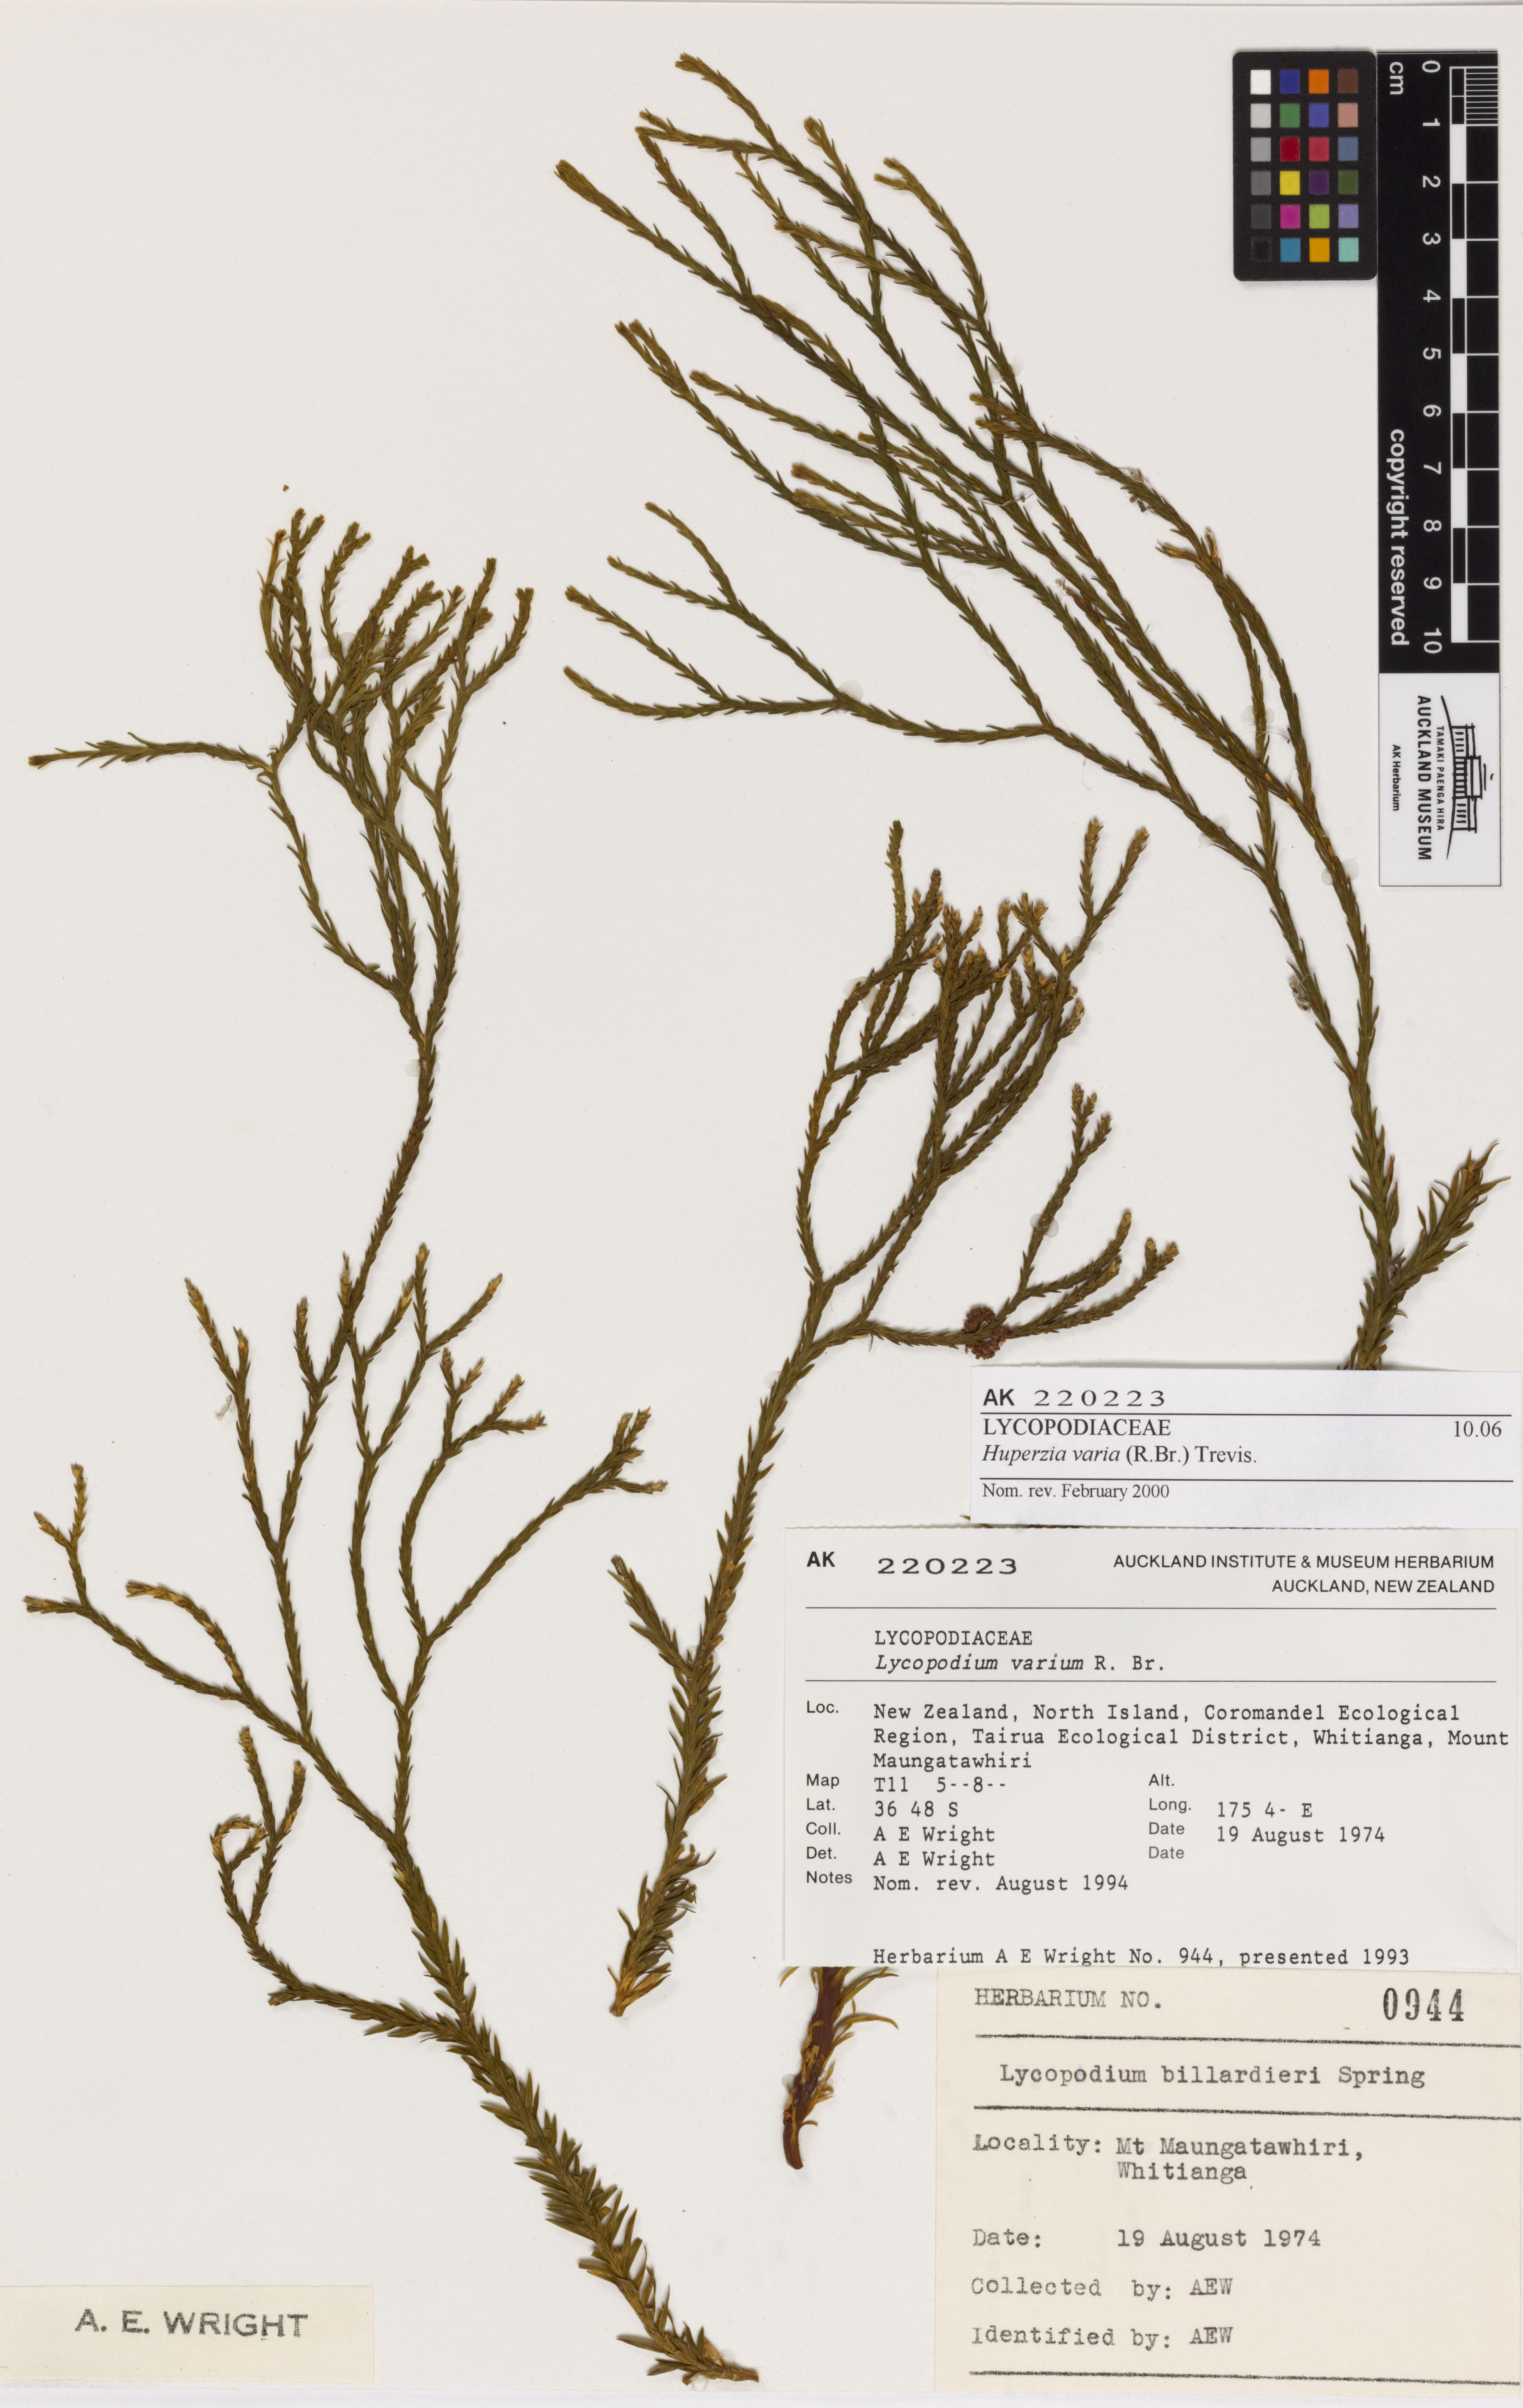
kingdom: Plantae
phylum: Tracheophyta
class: Lycopodiopsida
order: Lycopodiales
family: Lycopodiaceae
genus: Phlegmariurus
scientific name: Phlegmariurus billardierei
